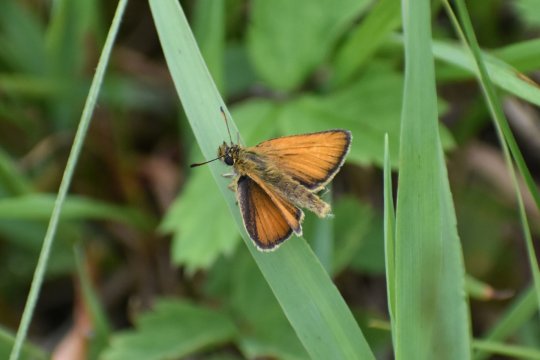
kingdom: Animalia
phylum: Arthropoda
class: Insecta
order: Lepidoptera
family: Hesperiidae
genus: Thymelicus
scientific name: Thymelicus lineola
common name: European Skipper
